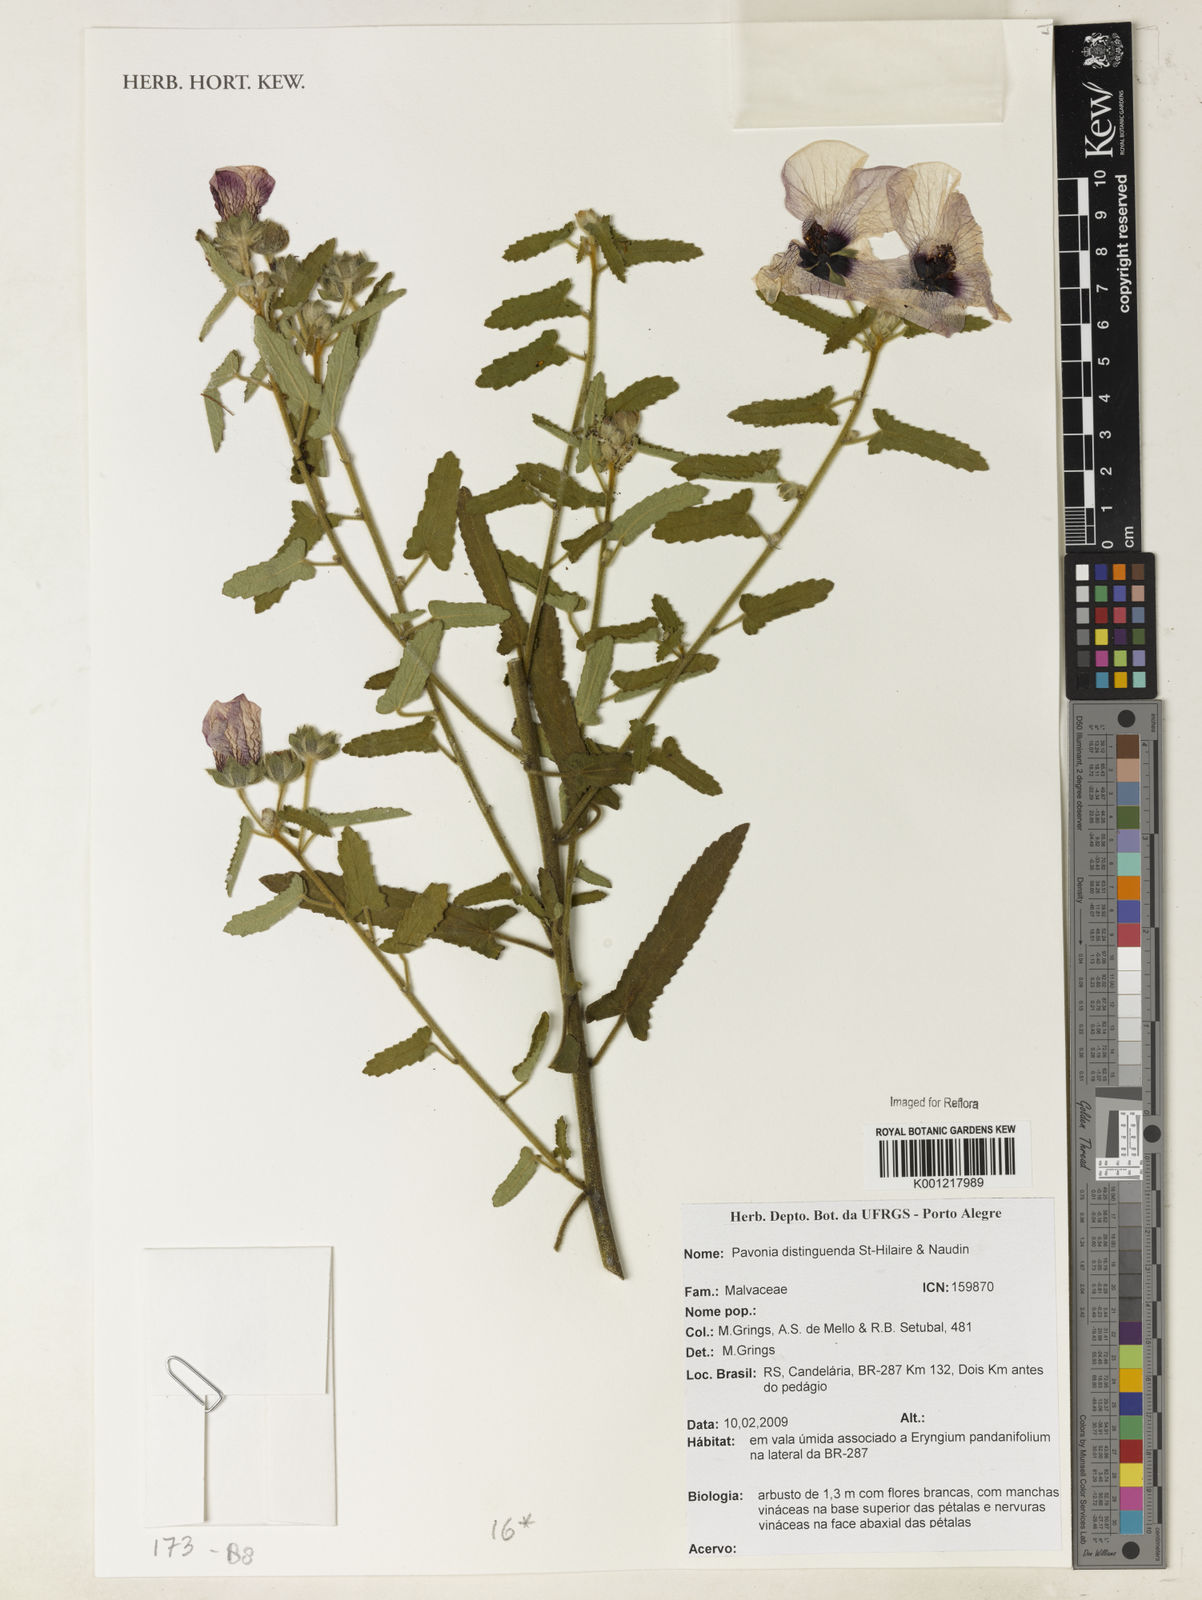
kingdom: Plantae
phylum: Tracheophyta
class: Magnoliopsida
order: Malvales
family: Malvaceae
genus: Pavonia
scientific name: Pavonia distinguenda
